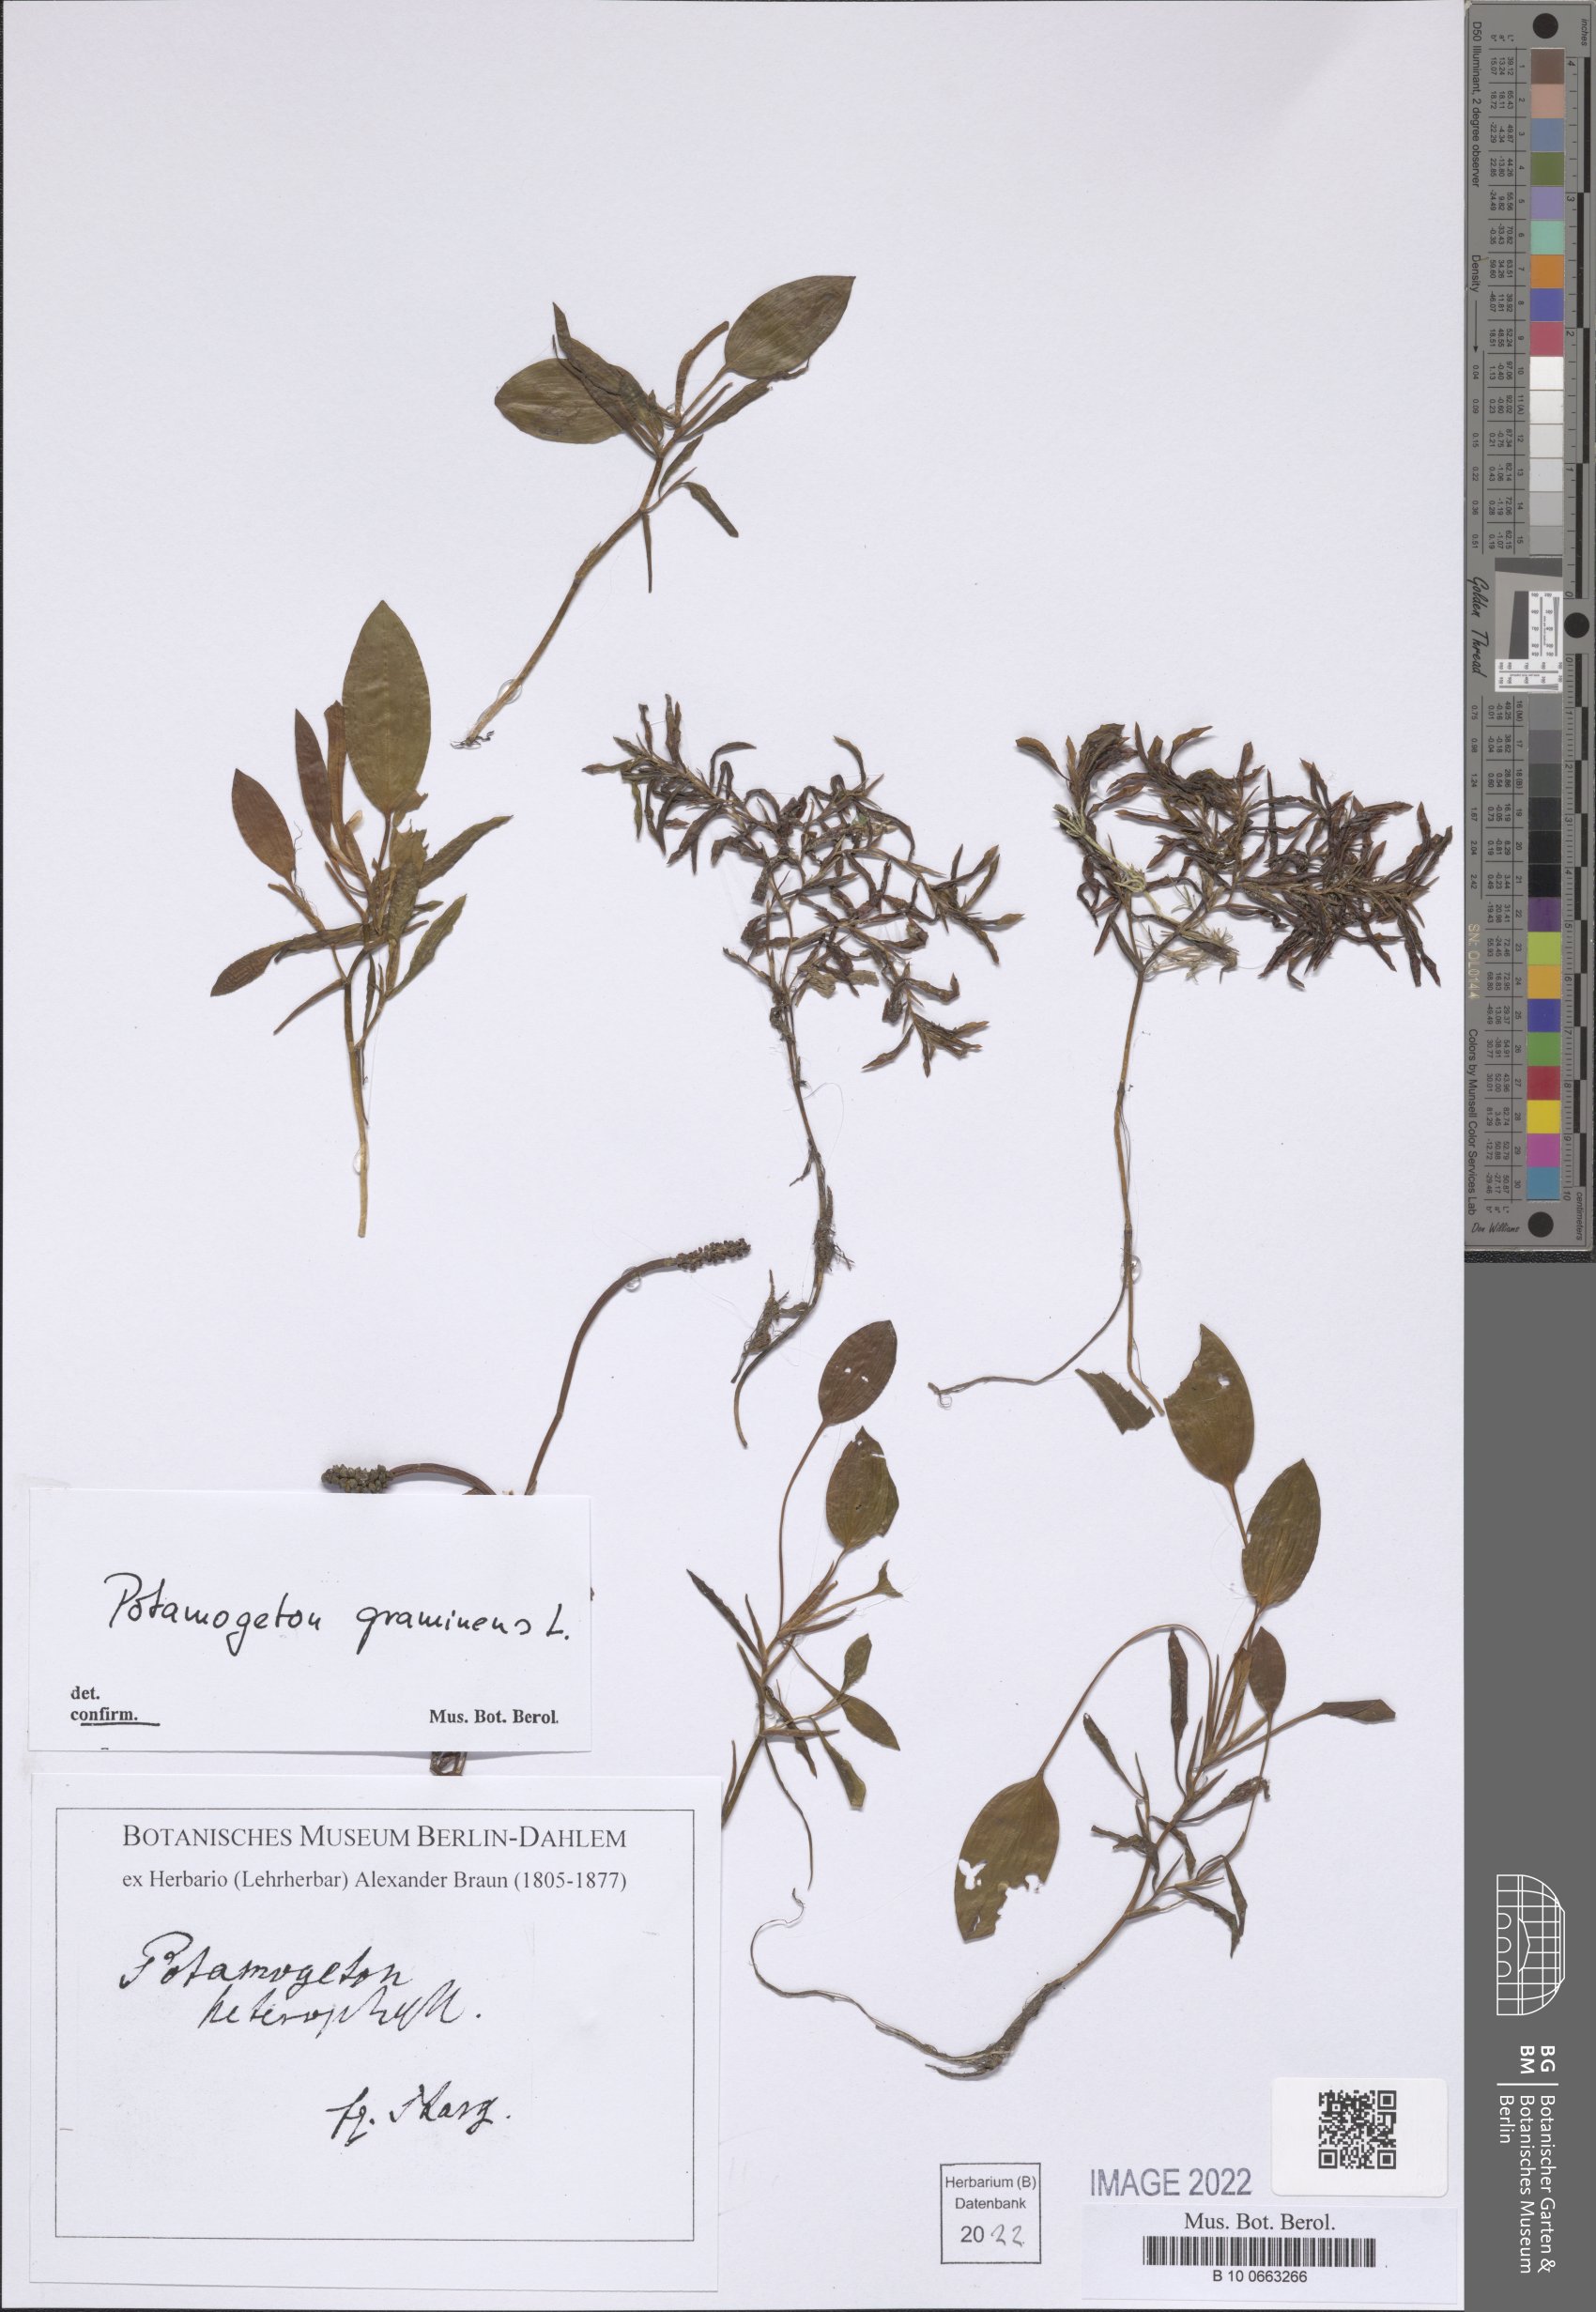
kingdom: Plantae
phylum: Tracheophyta
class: Liliopsida
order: Alismatales
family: Potamogetonaceae
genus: Potamogeton
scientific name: Potamogeton gramineus
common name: Various-leaved pondweed
